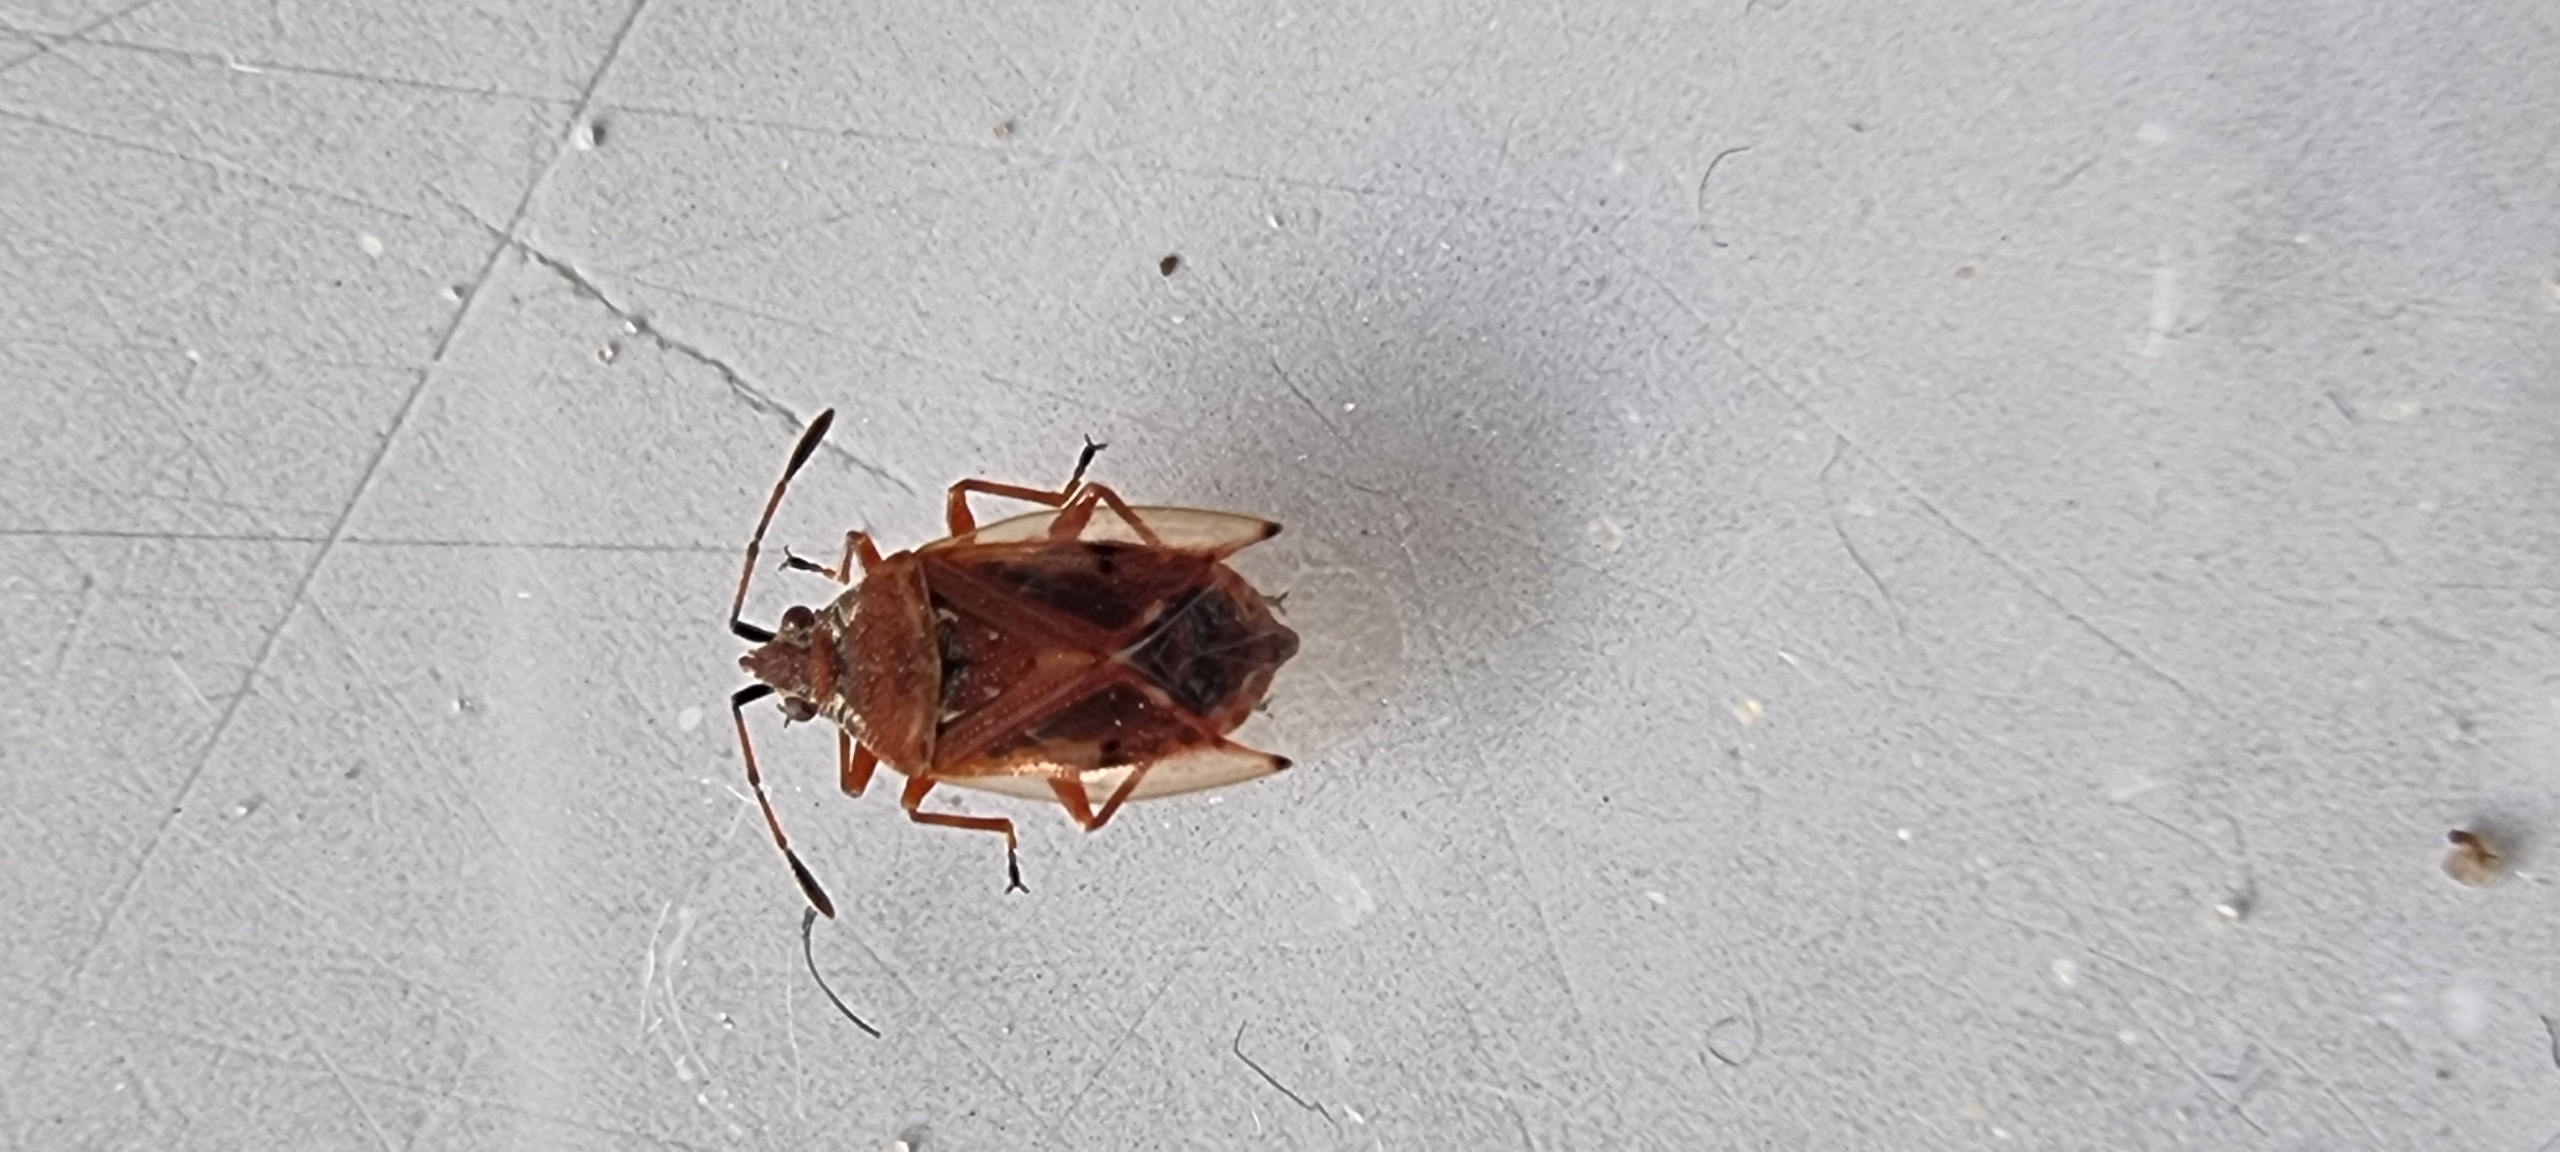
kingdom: Animalia
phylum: Arthropoda
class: Insecta
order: Hemiptera
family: Lygaeidae
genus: Kleidocerys
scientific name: Kleidocerys resedae
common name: Birkefrøtæge
